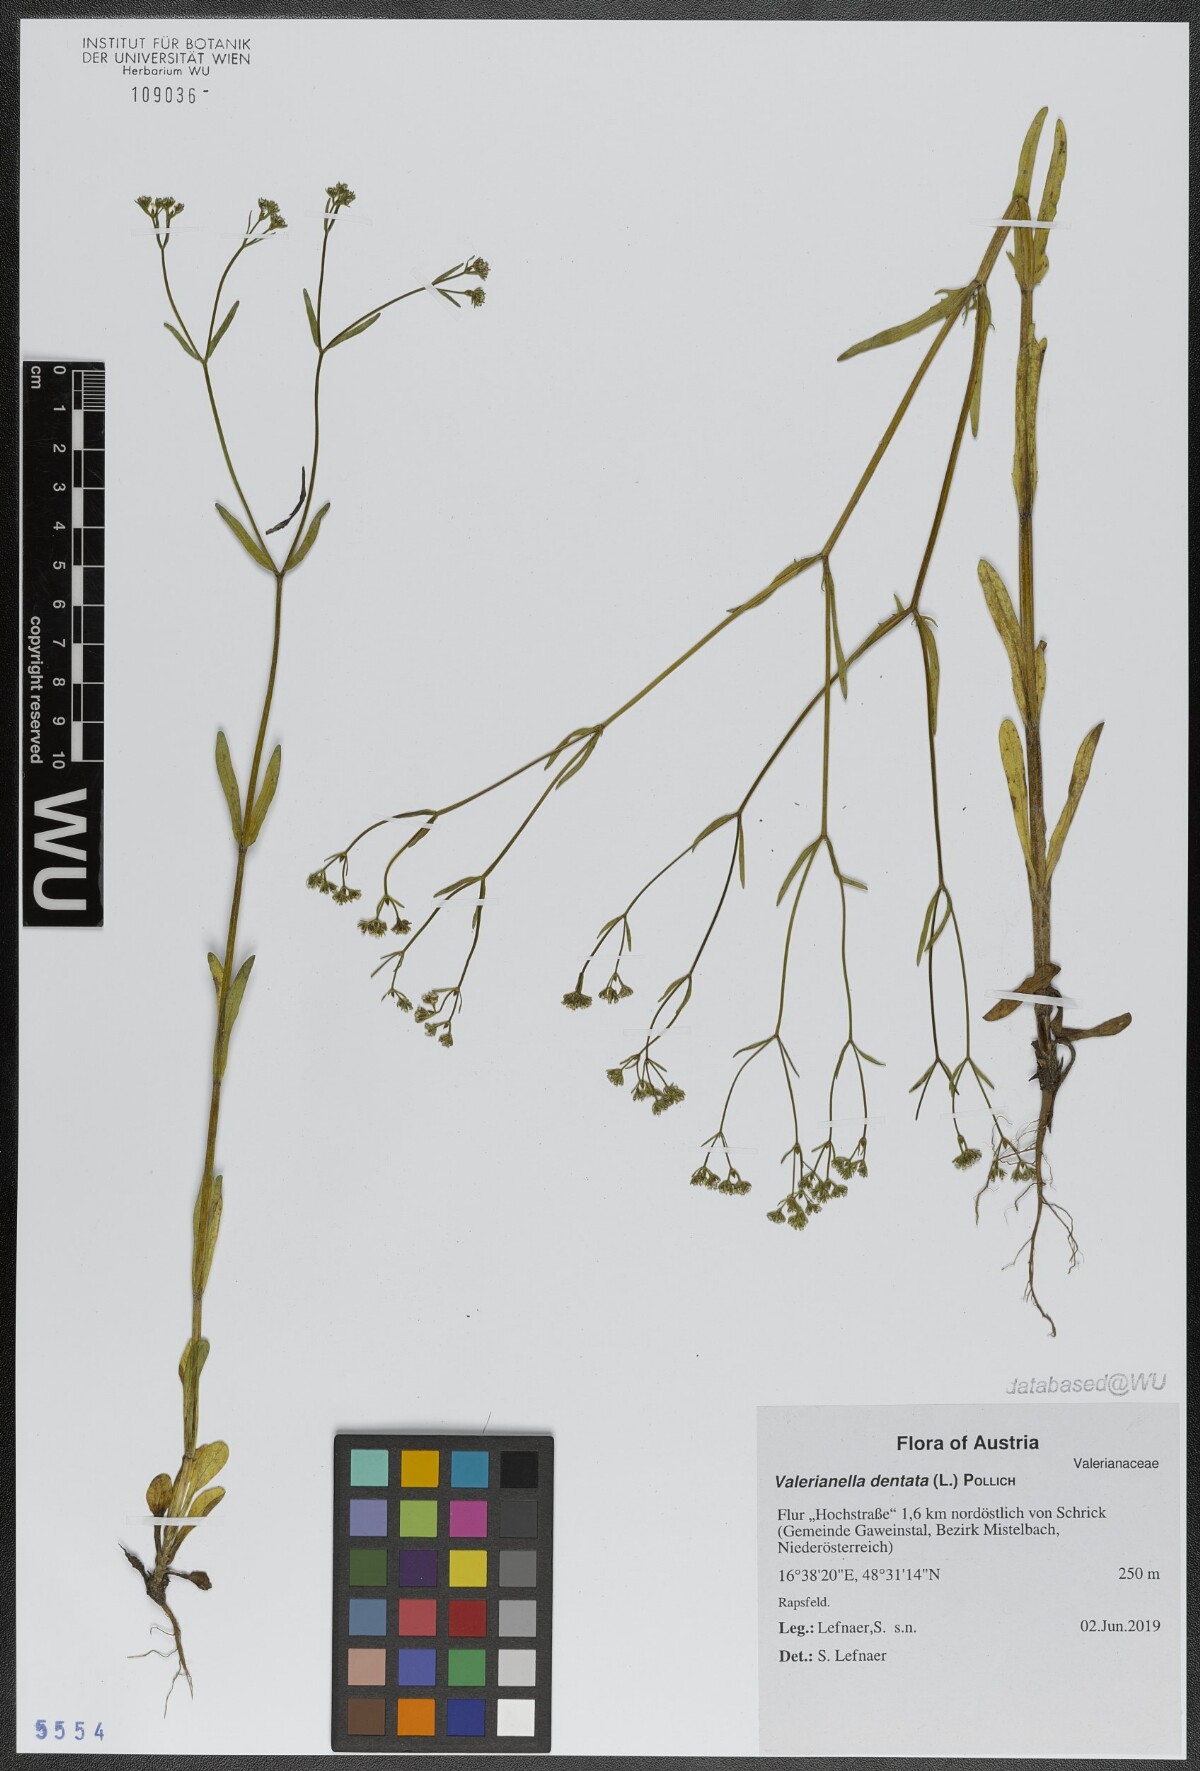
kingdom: Plantae
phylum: Tracheophyta
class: Magnoliopsida
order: Dipsacales
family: Caprifoliaceae
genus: Valerianella
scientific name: Valerianella dentata
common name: Narrow-fruited cornsalad
